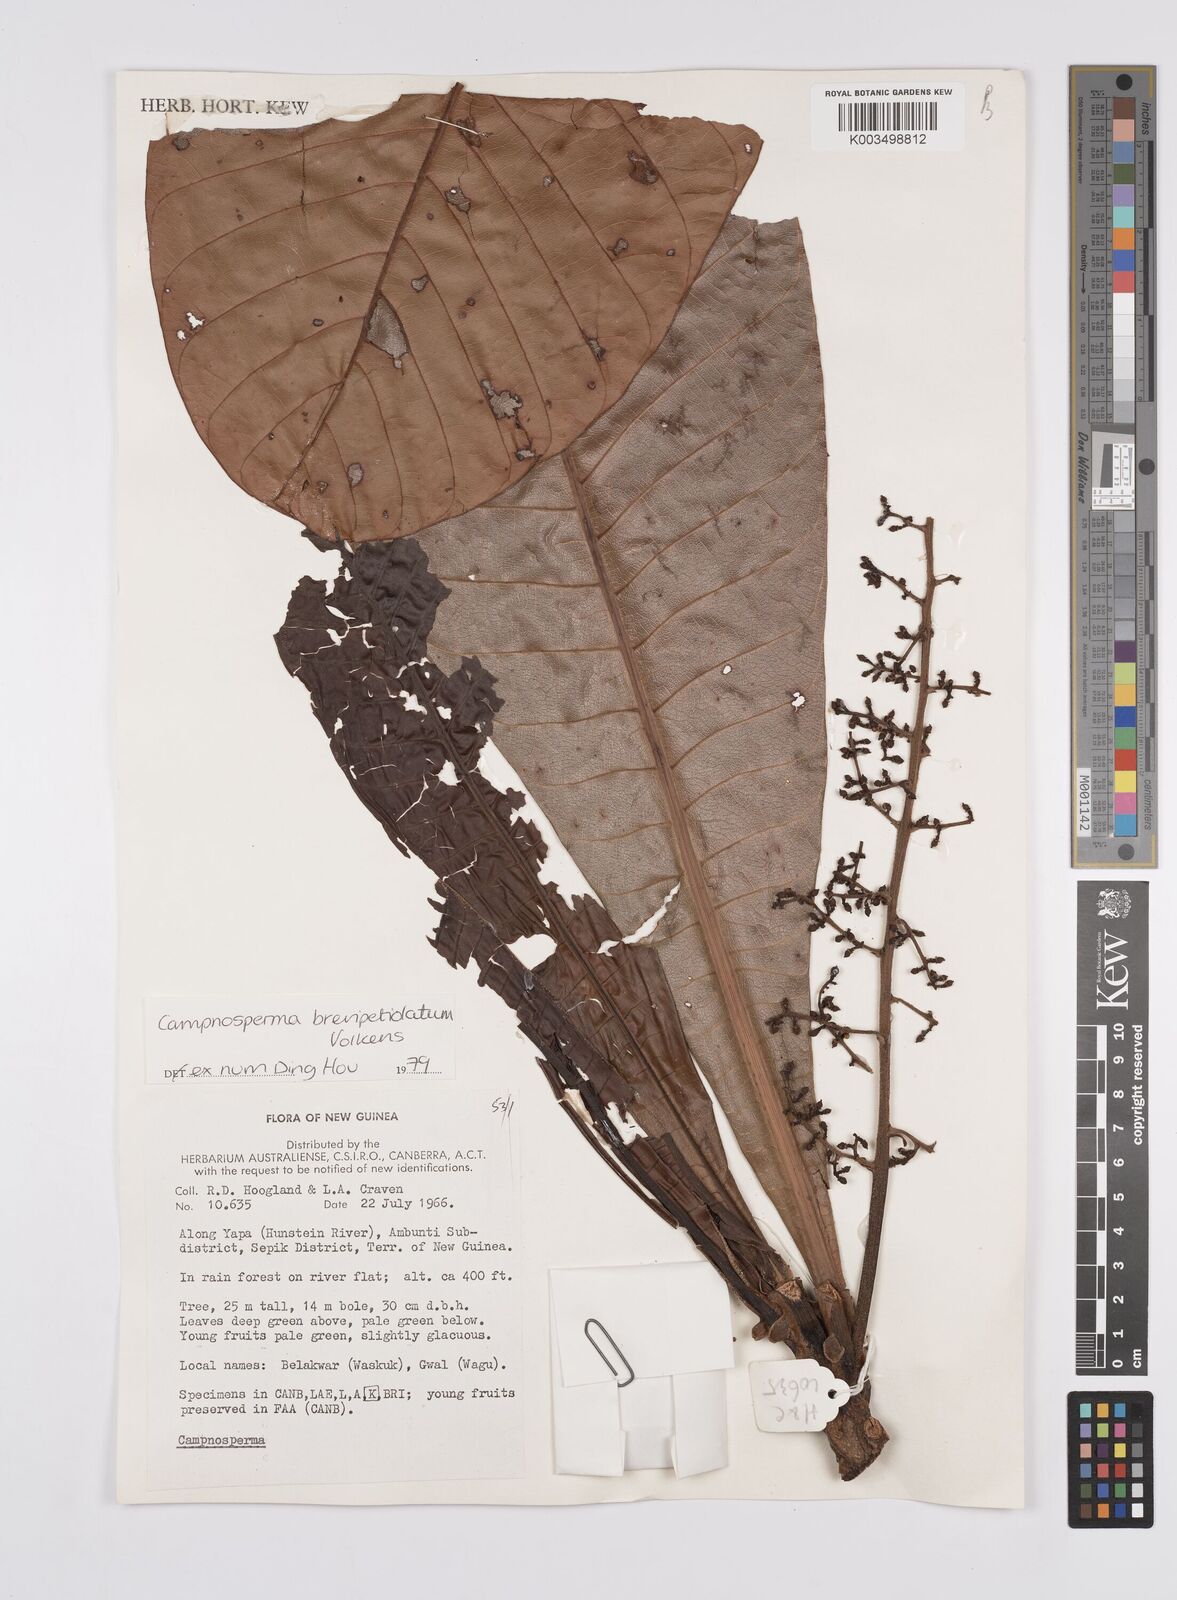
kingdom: Plantae
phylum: Tracheophyta
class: Magnoliopsida
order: Sapindales
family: Anacardiaceae
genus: Campnosperma
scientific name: Campnosperma brevipetiolatum
